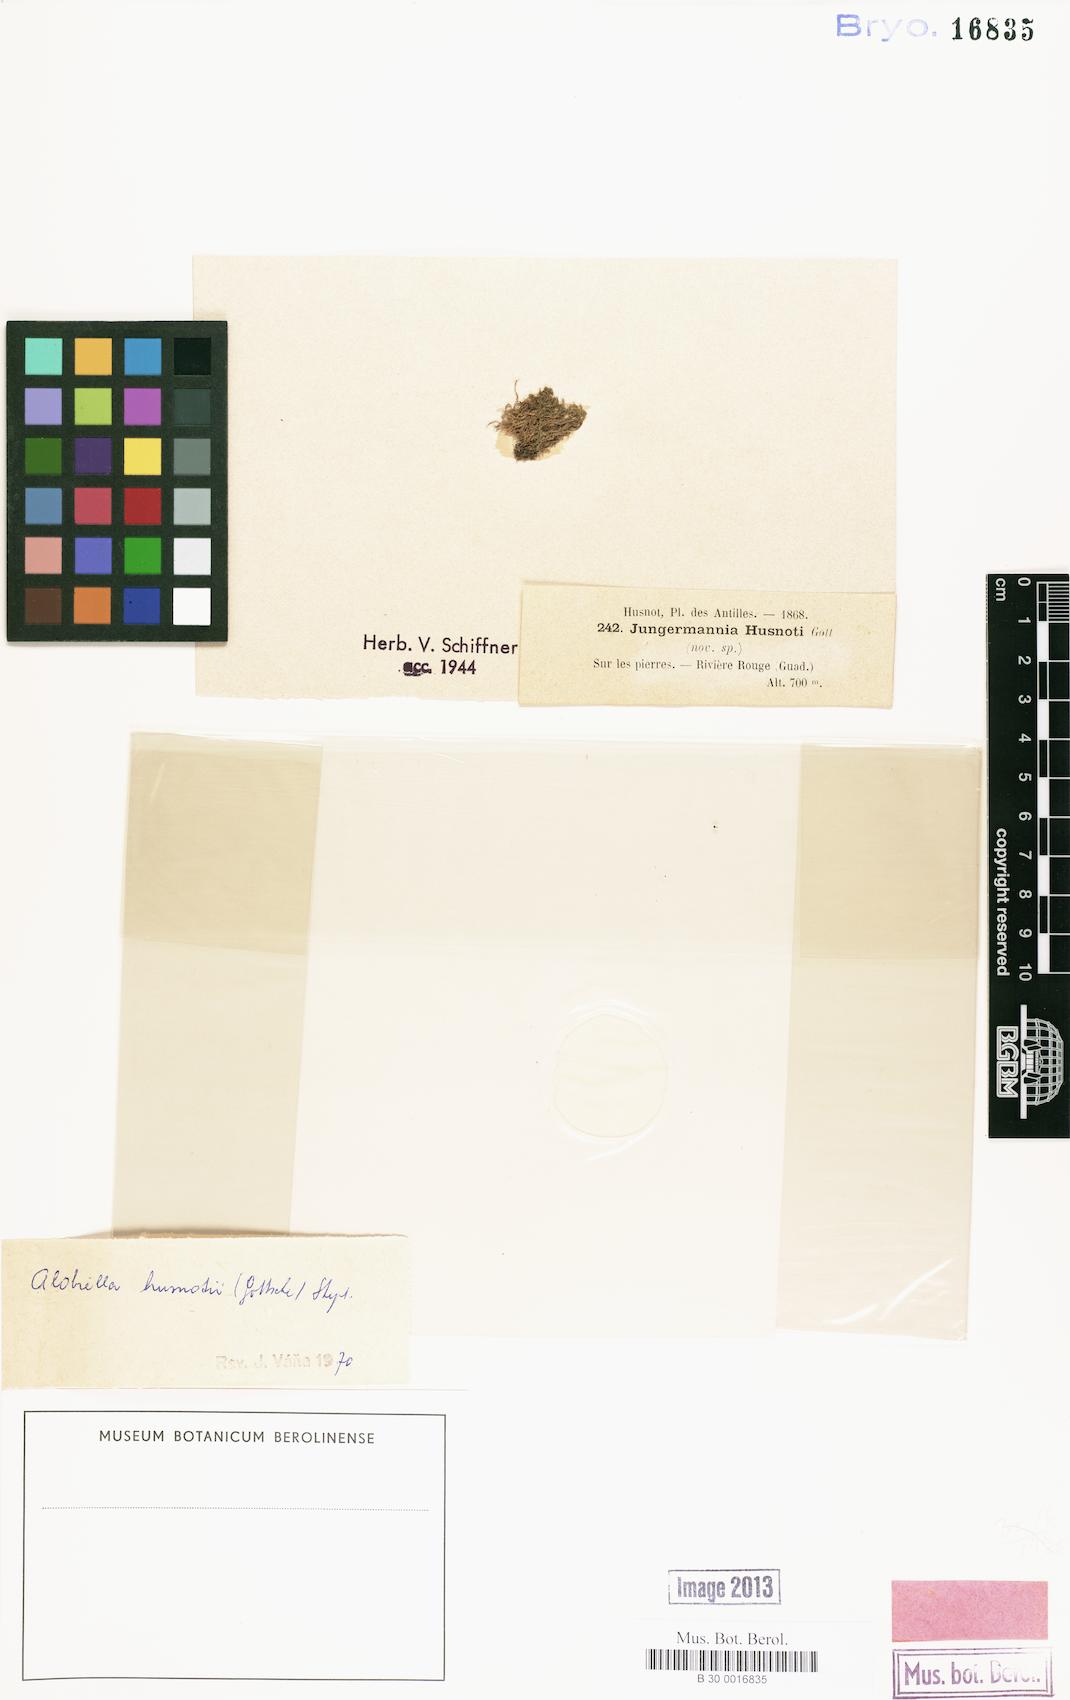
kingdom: Plantae
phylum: Marchantiophyta
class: Jungermanniopsida
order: Jungermanniales
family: Cephaloziaceae
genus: Alobiella
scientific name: Alobiella husnotii
